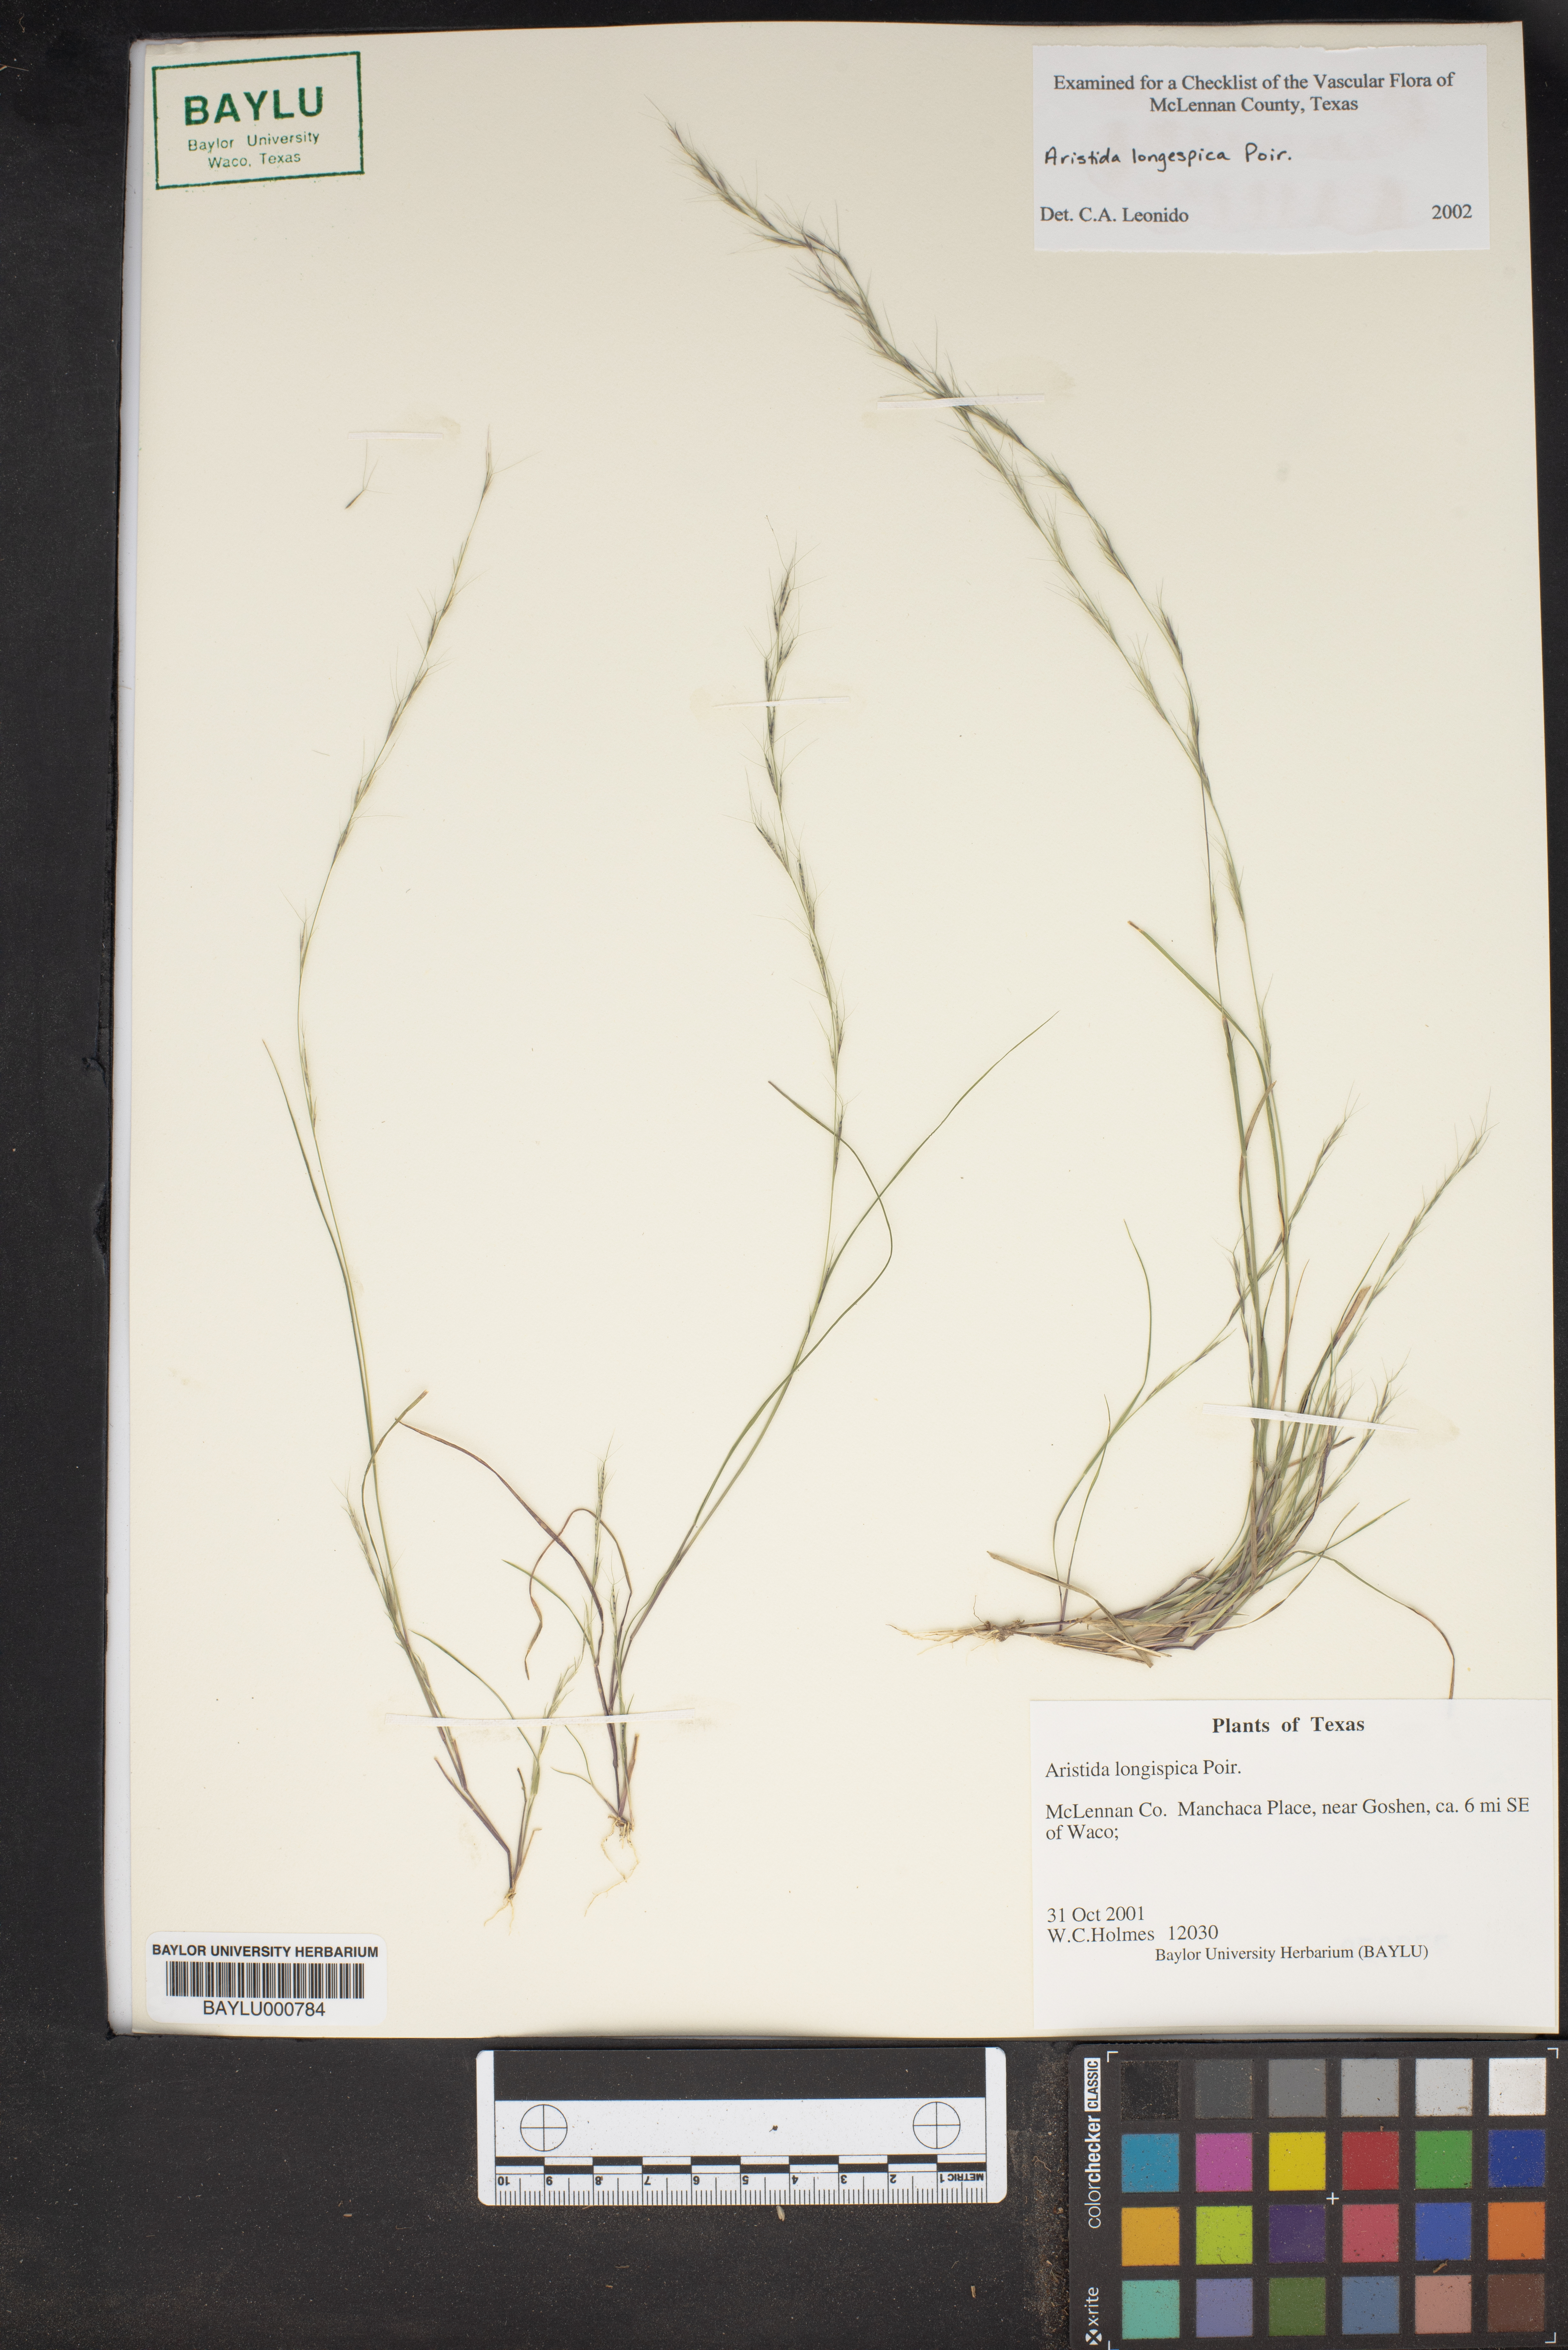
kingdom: Plantae
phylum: Tracheophyta
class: Liliopsida
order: Poales
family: Poaceae
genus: Aristida
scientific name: Aristida longispica
